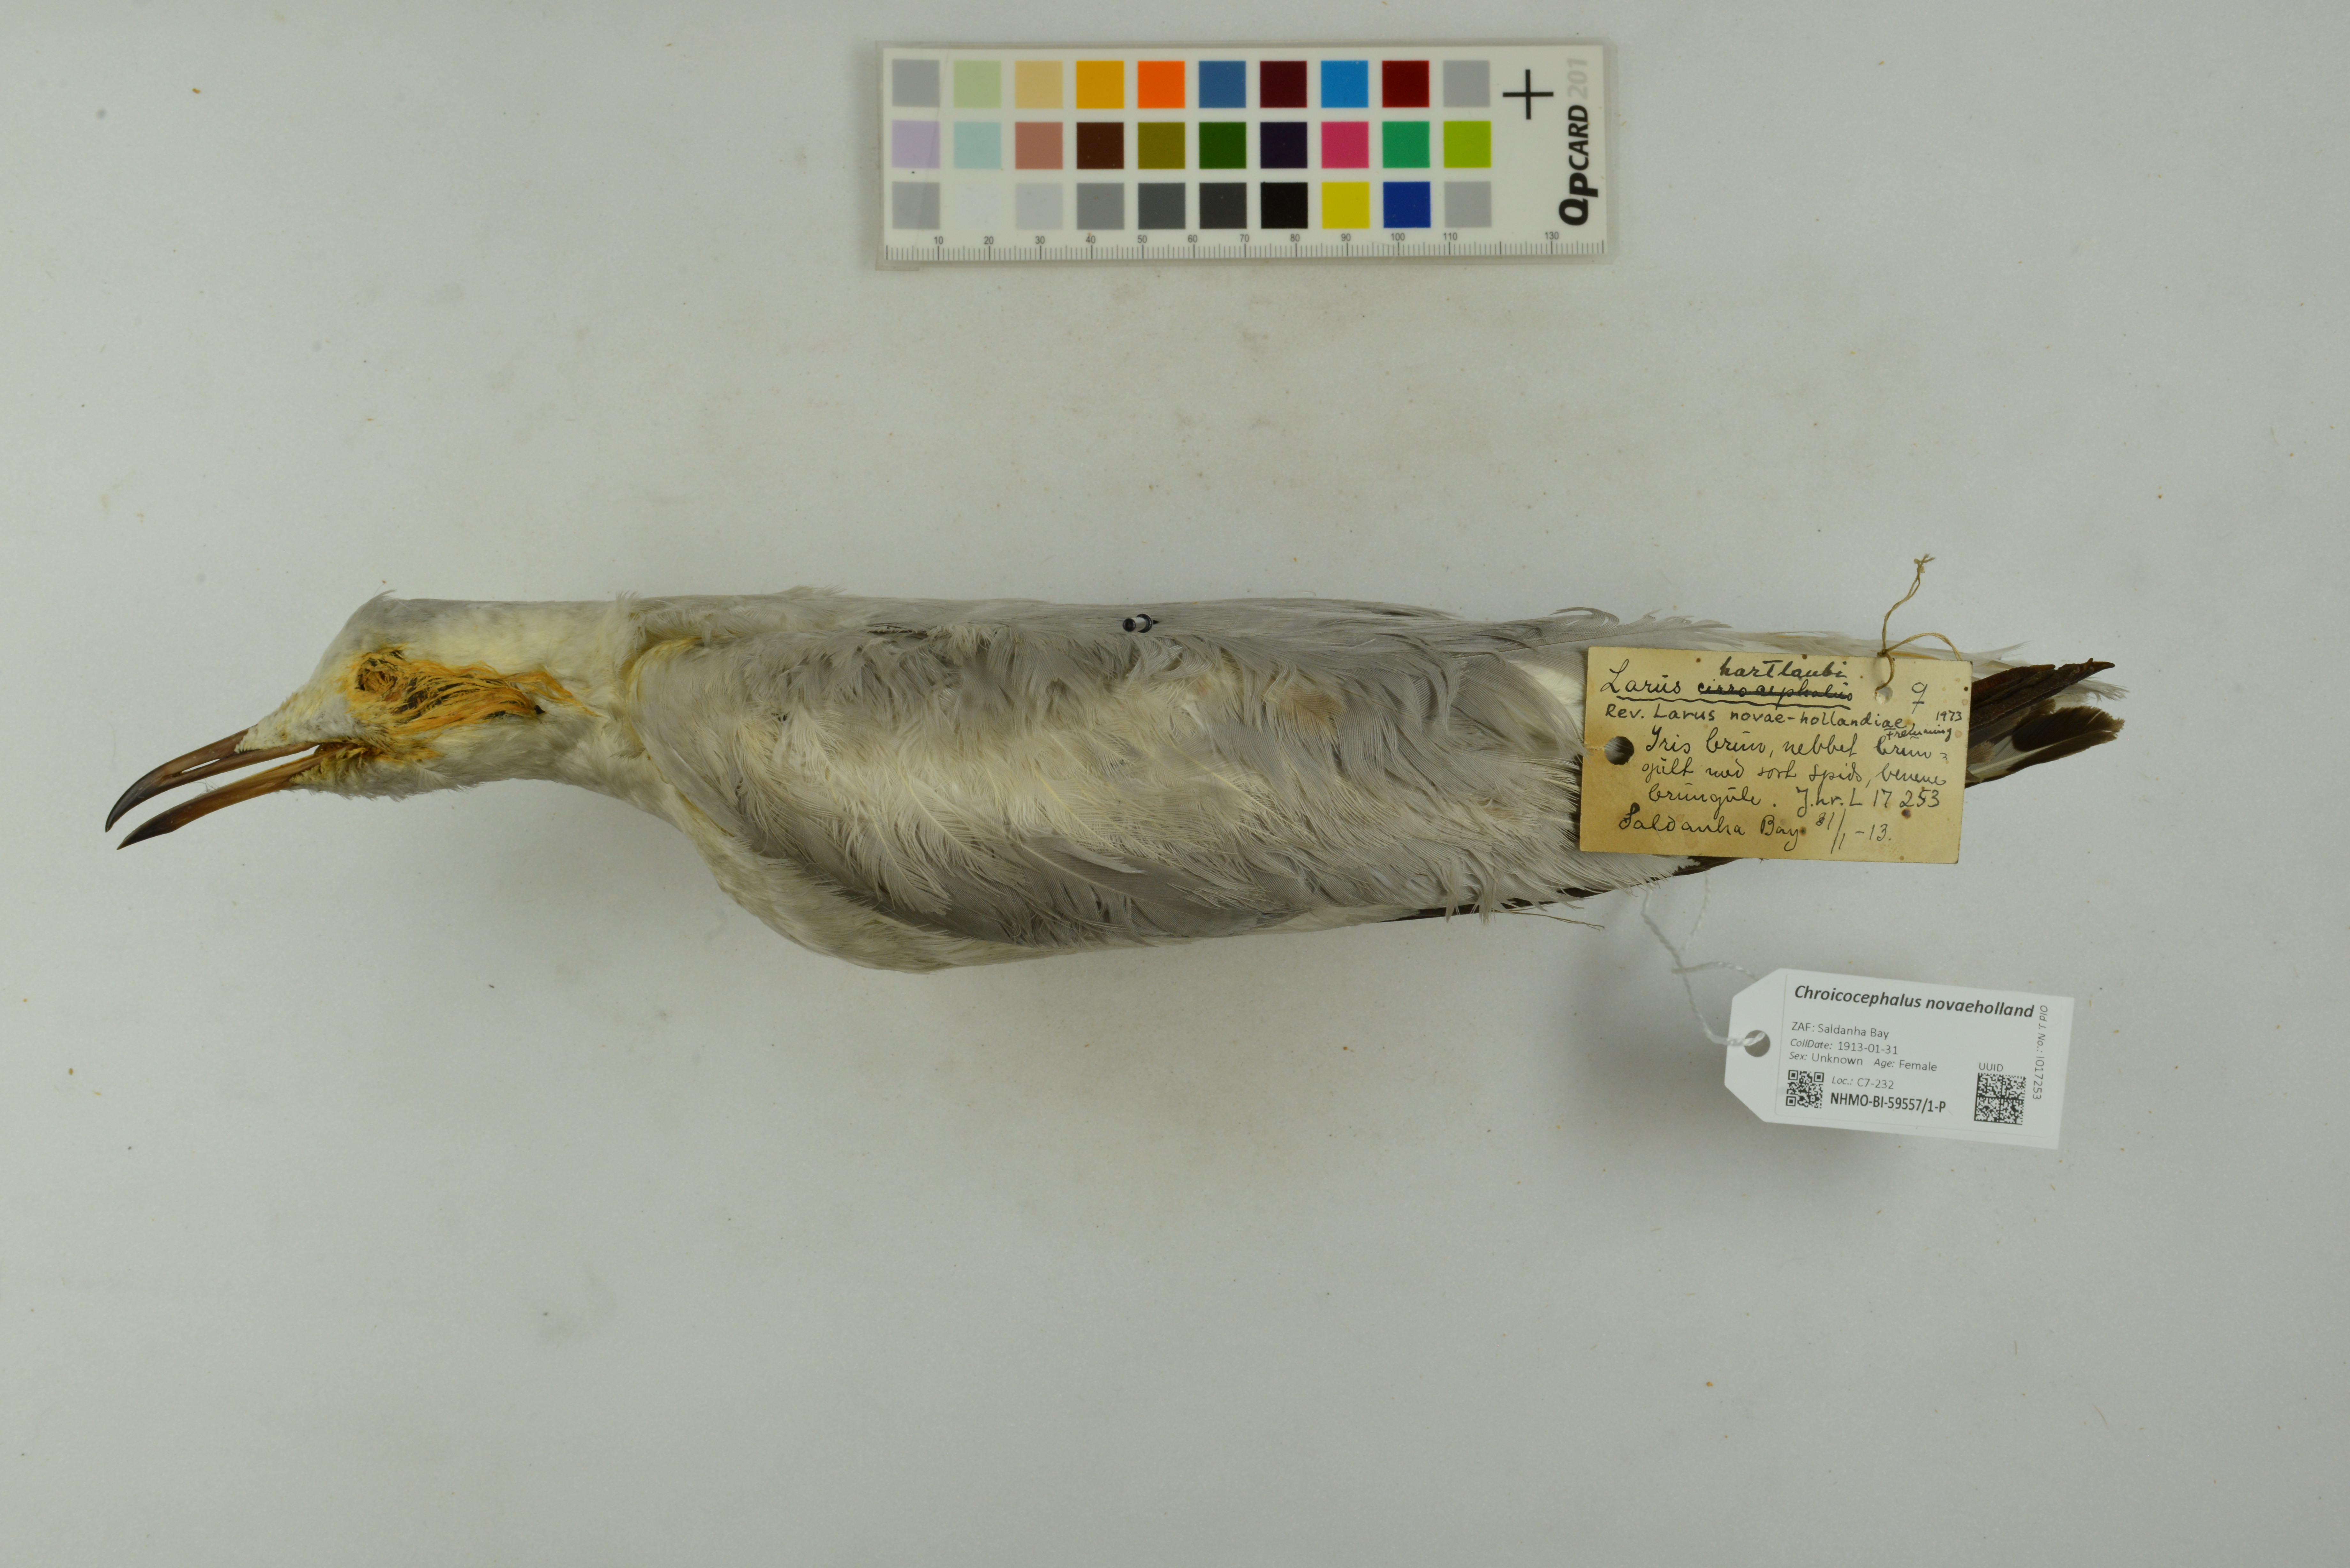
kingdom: Animalia
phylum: Chordata
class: Aves
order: Charadriiformes
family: Laridae
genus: Chroicocephalus
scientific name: Chroicocephalus novaehollandiae
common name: Silver gull
